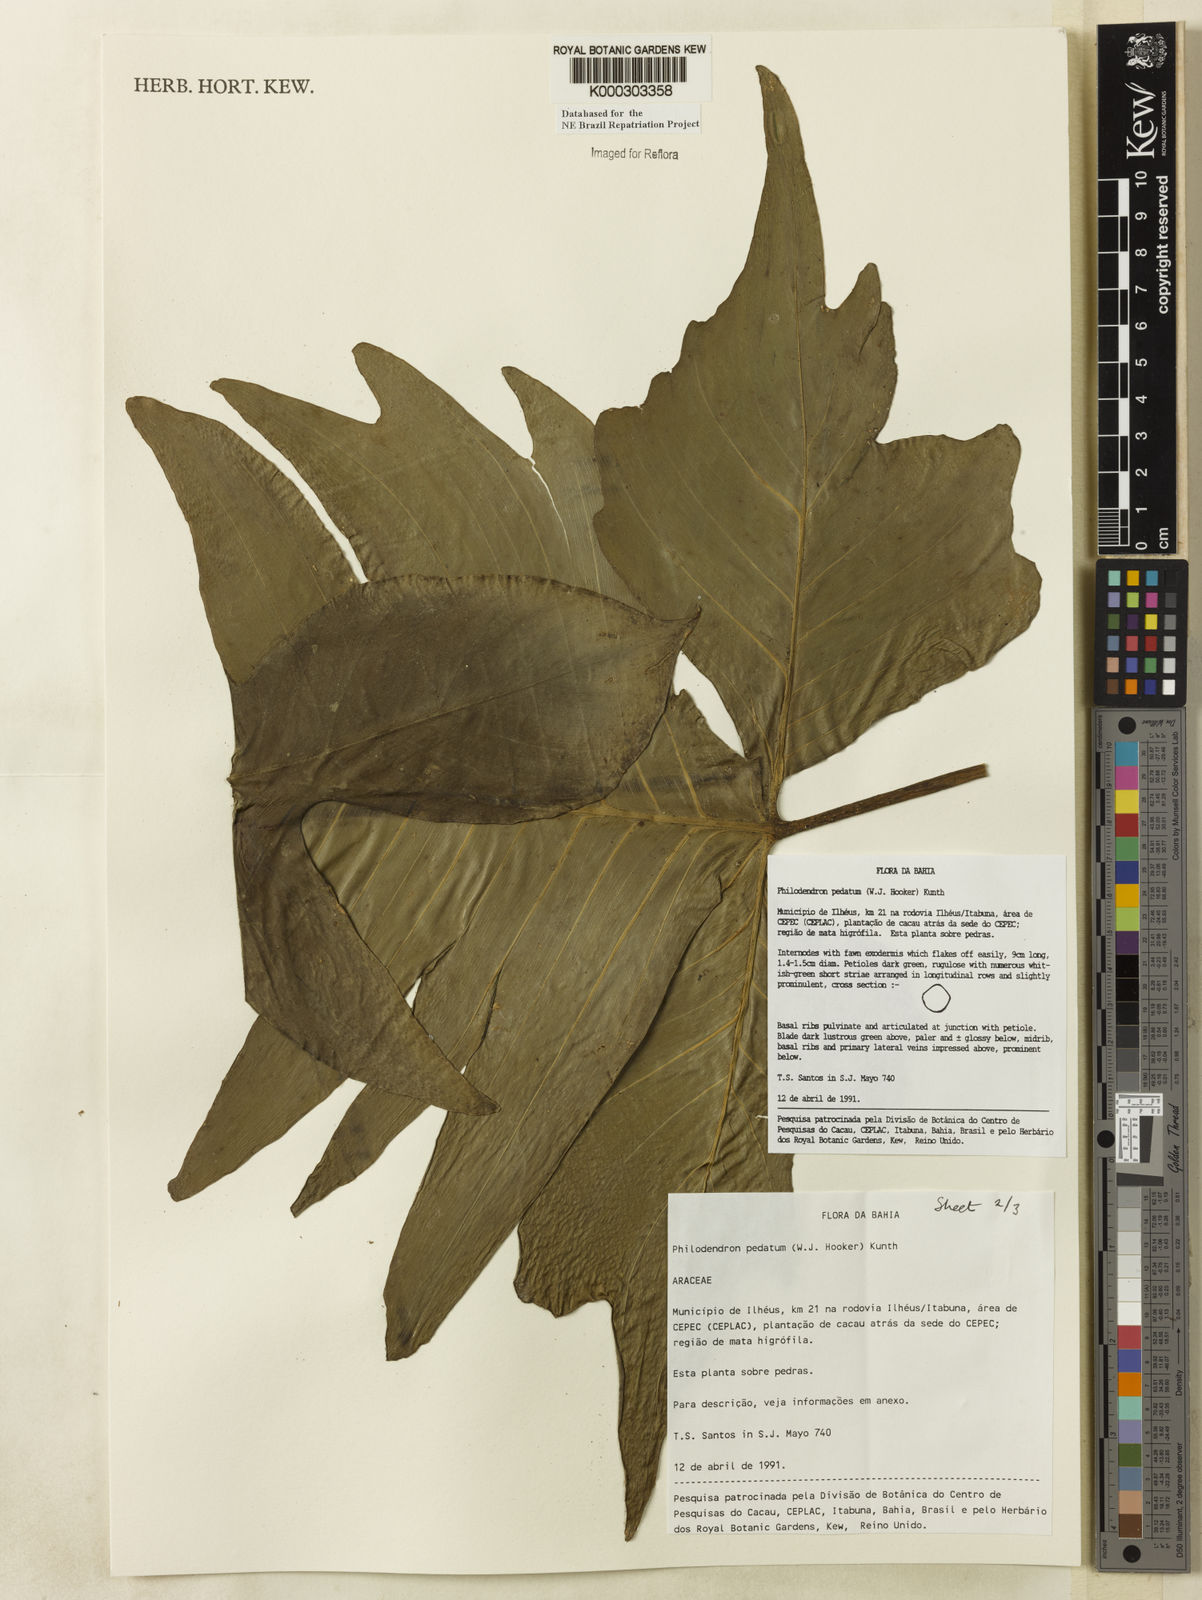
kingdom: Plantae
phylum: Tracheophyta
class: Liliopsida
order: Alismatales
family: Araceae
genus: Philodendron
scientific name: Philodendron pedatum
